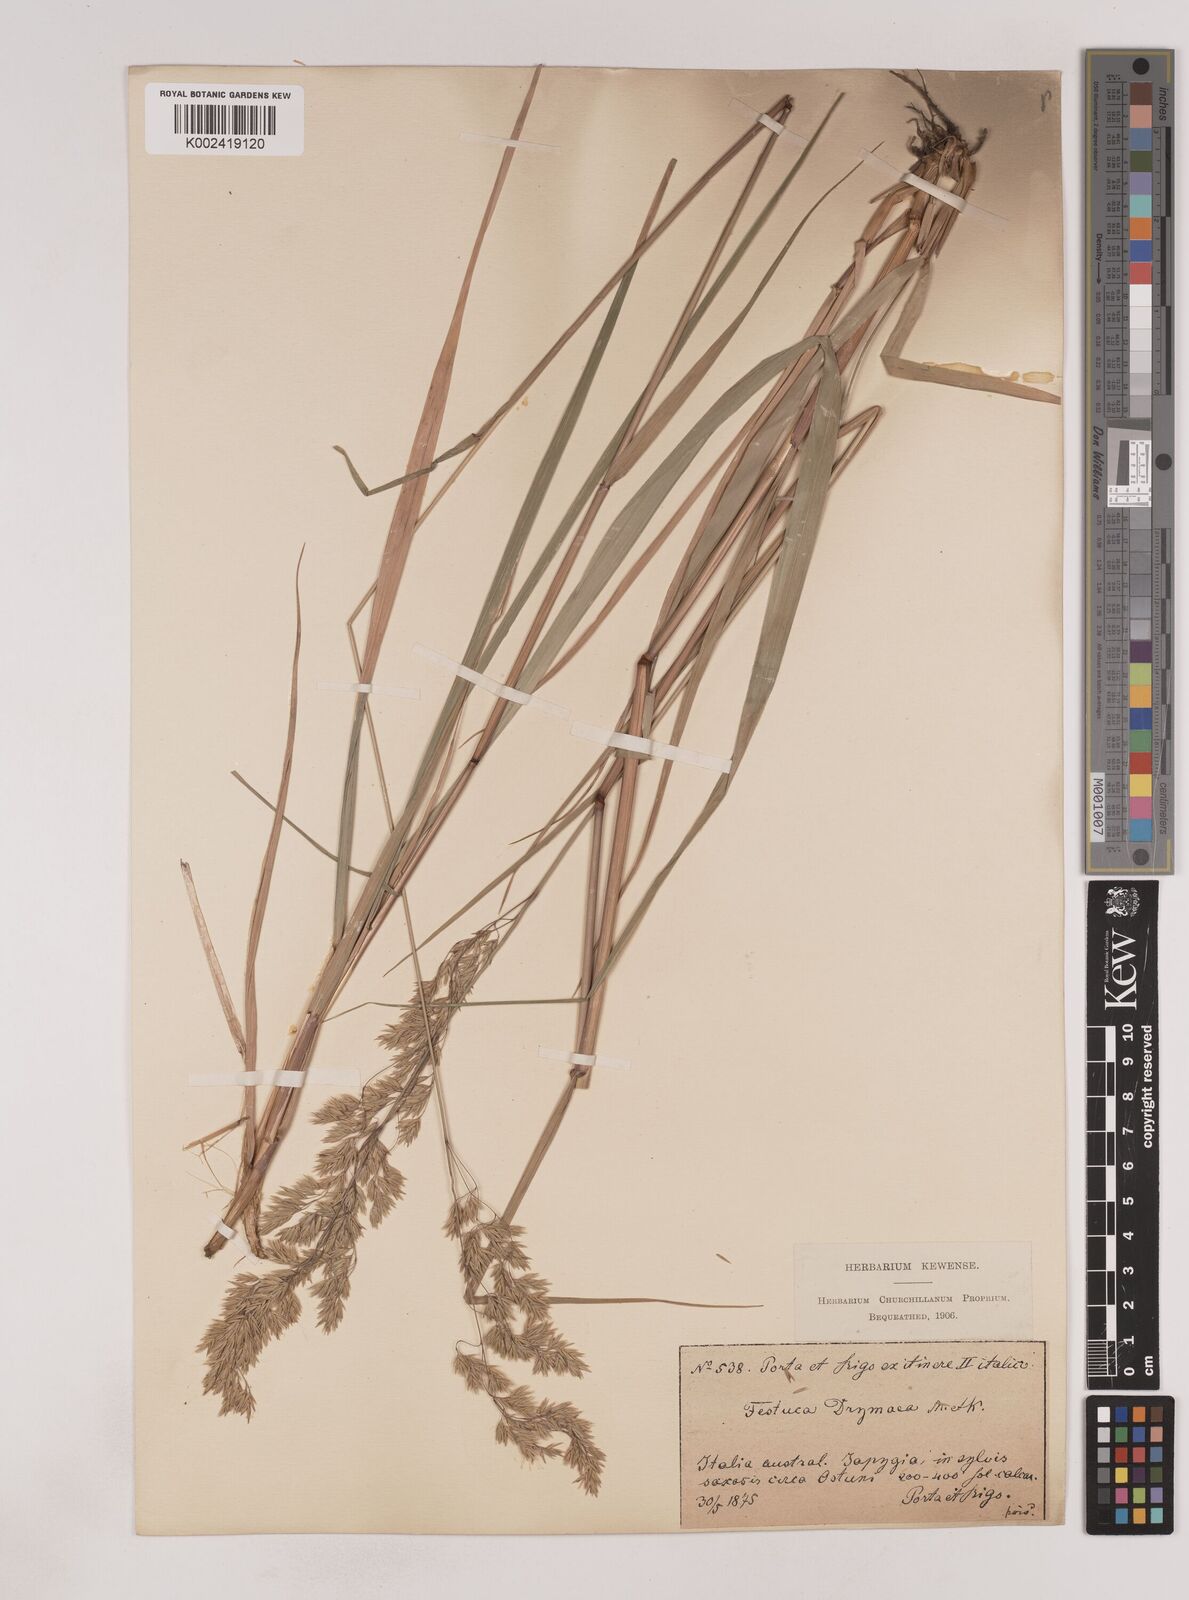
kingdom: Plantae
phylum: Tracheophyta
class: Liliopsida
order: Poales
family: Poaceae
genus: Festuca
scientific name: Festuca drymeja
